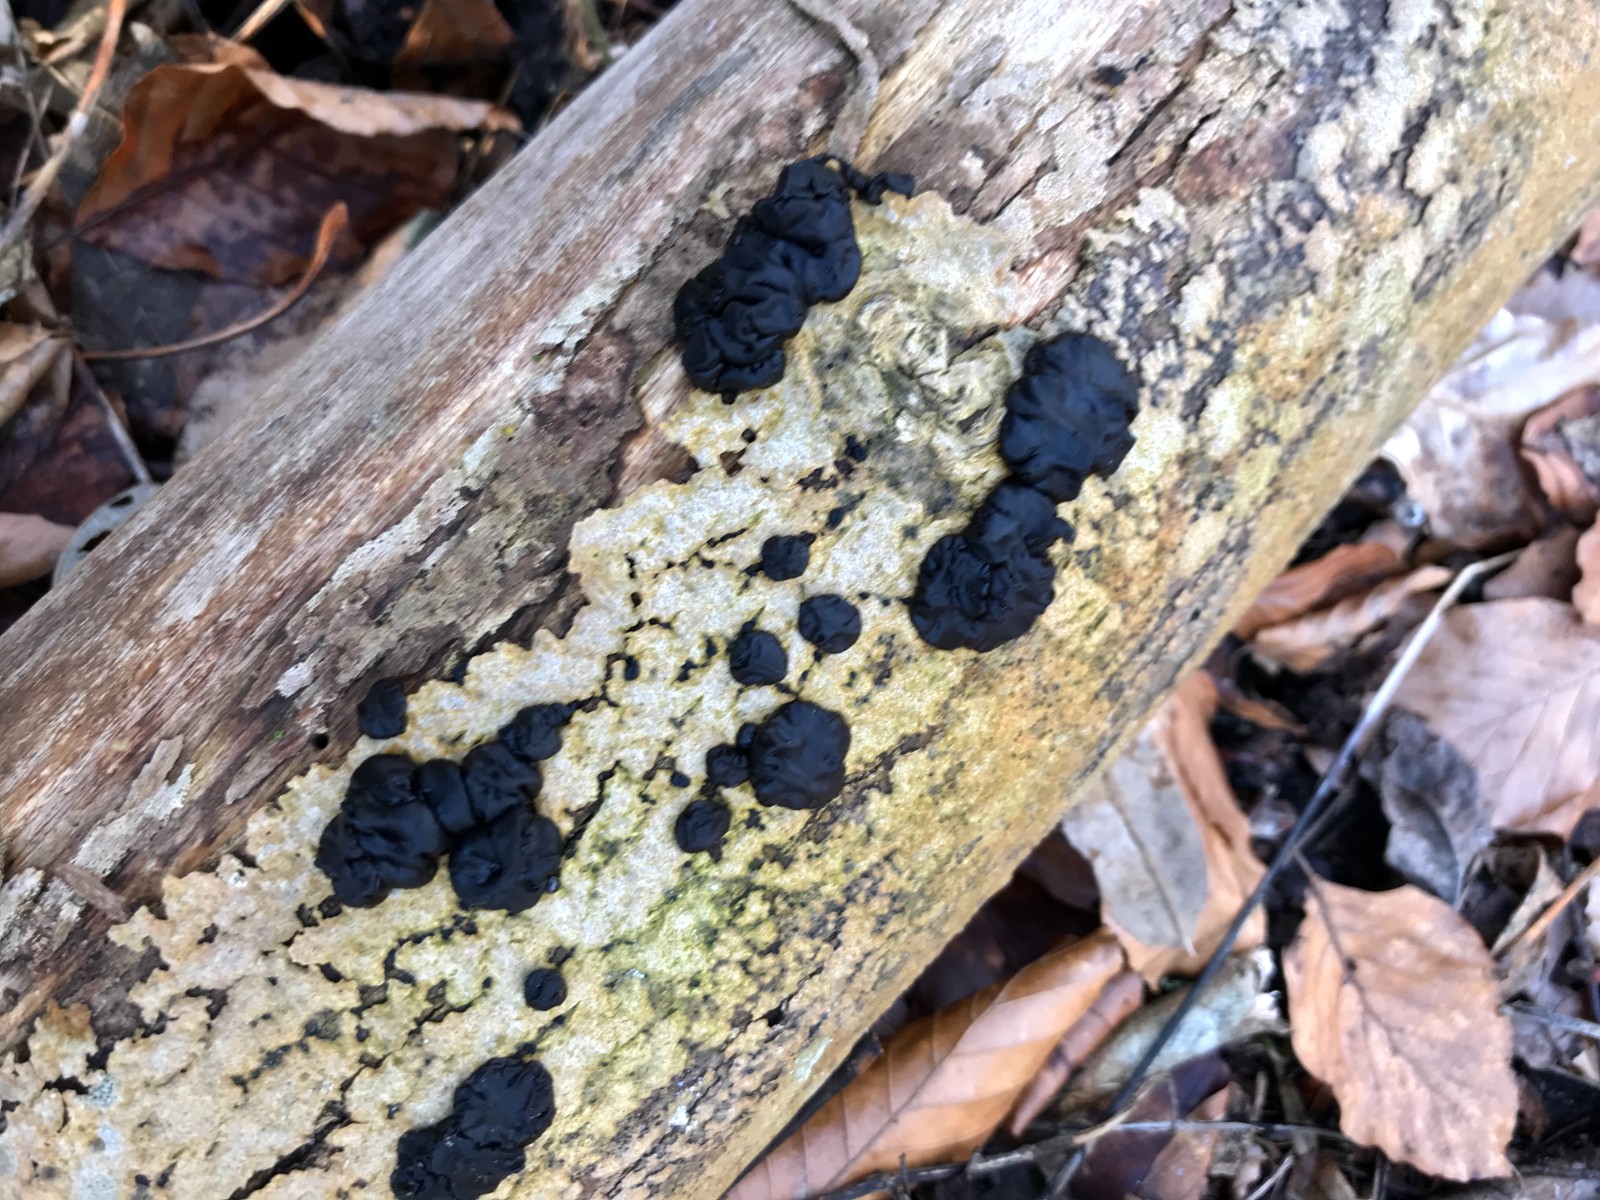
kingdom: Fungi
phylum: Basidiomycota
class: Agaricomycetes
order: Auriculariales
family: Auriculariaceae
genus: Exidia
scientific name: Exidia nigricans
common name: almindelig bævretop
